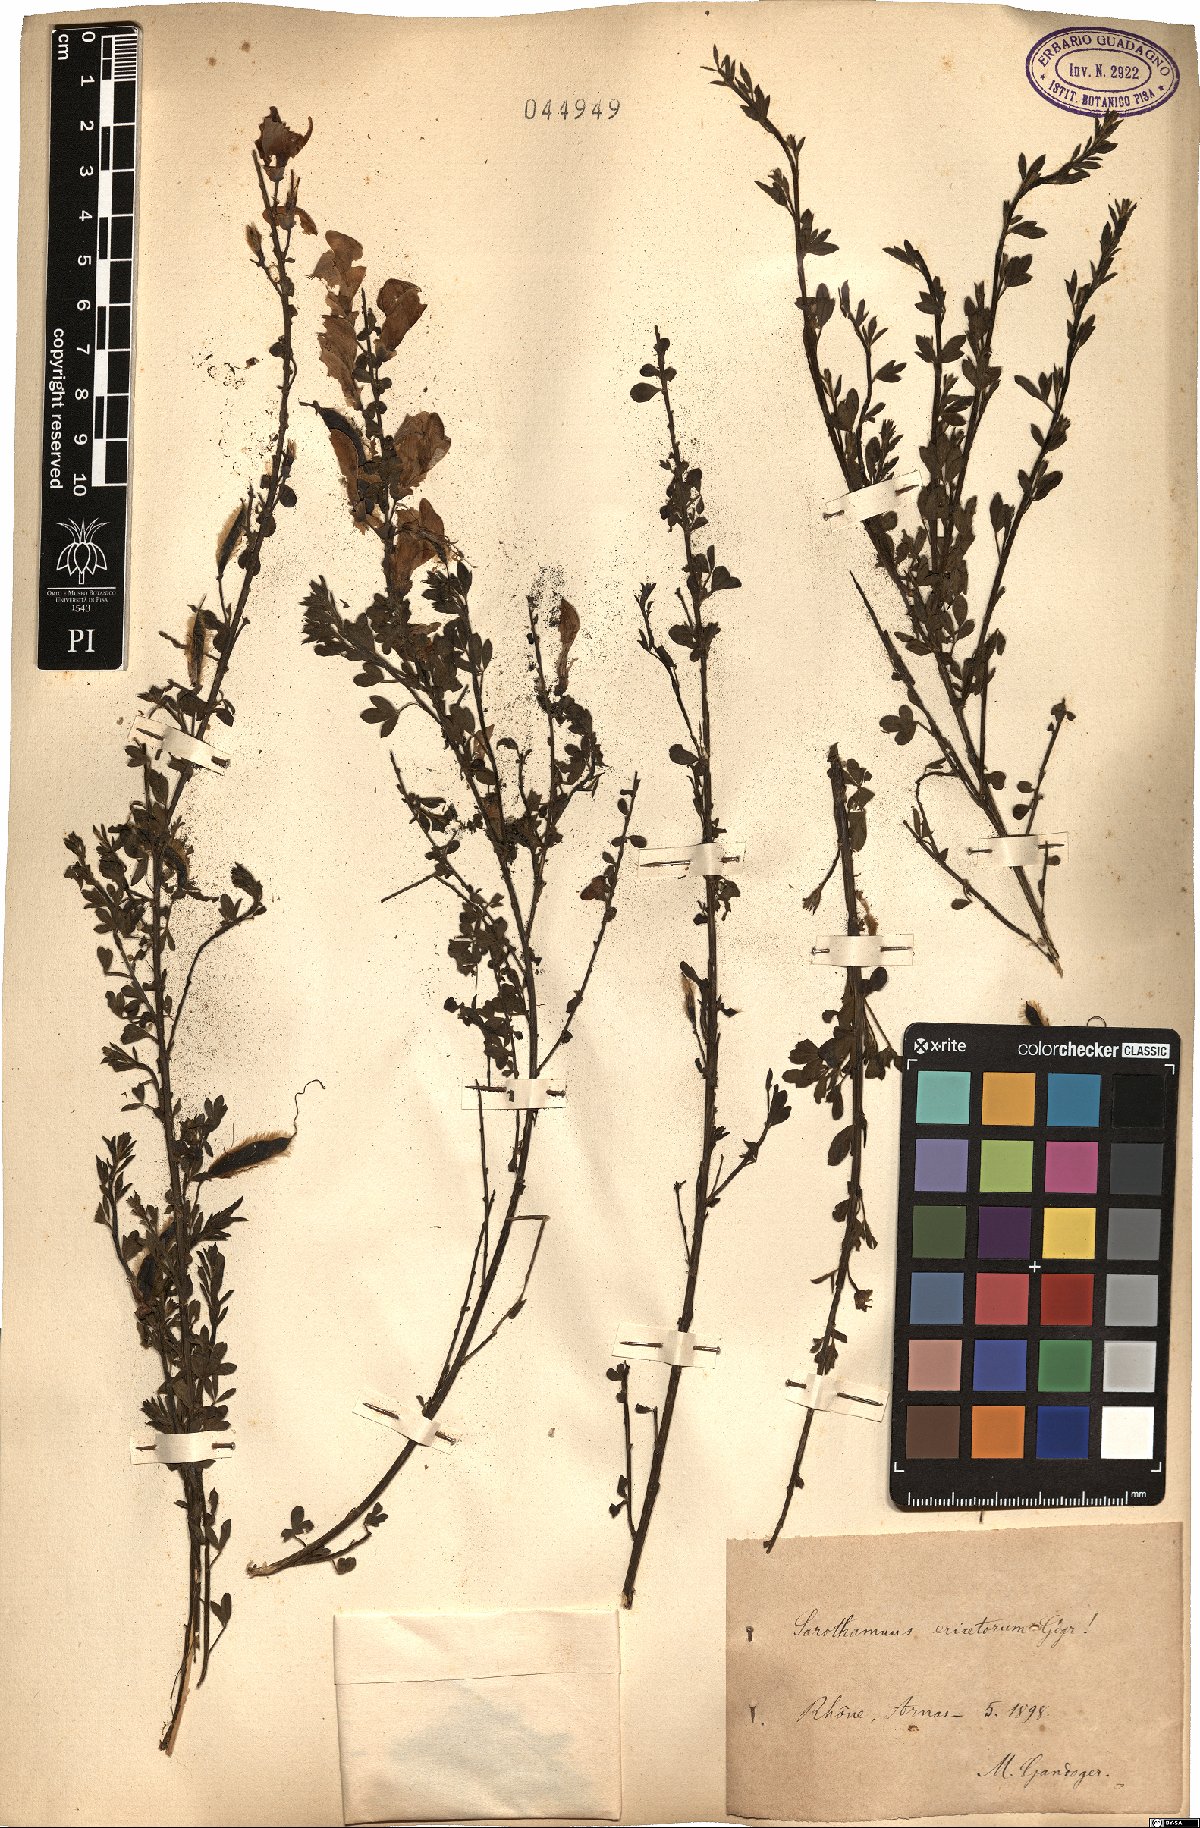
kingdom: Plantae
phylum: Tracheophyta
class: Magnoliopsida
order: Fabales
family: Fabaceae
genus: Cytisus
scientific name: Cytisus scoparius
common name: Scotch broom
